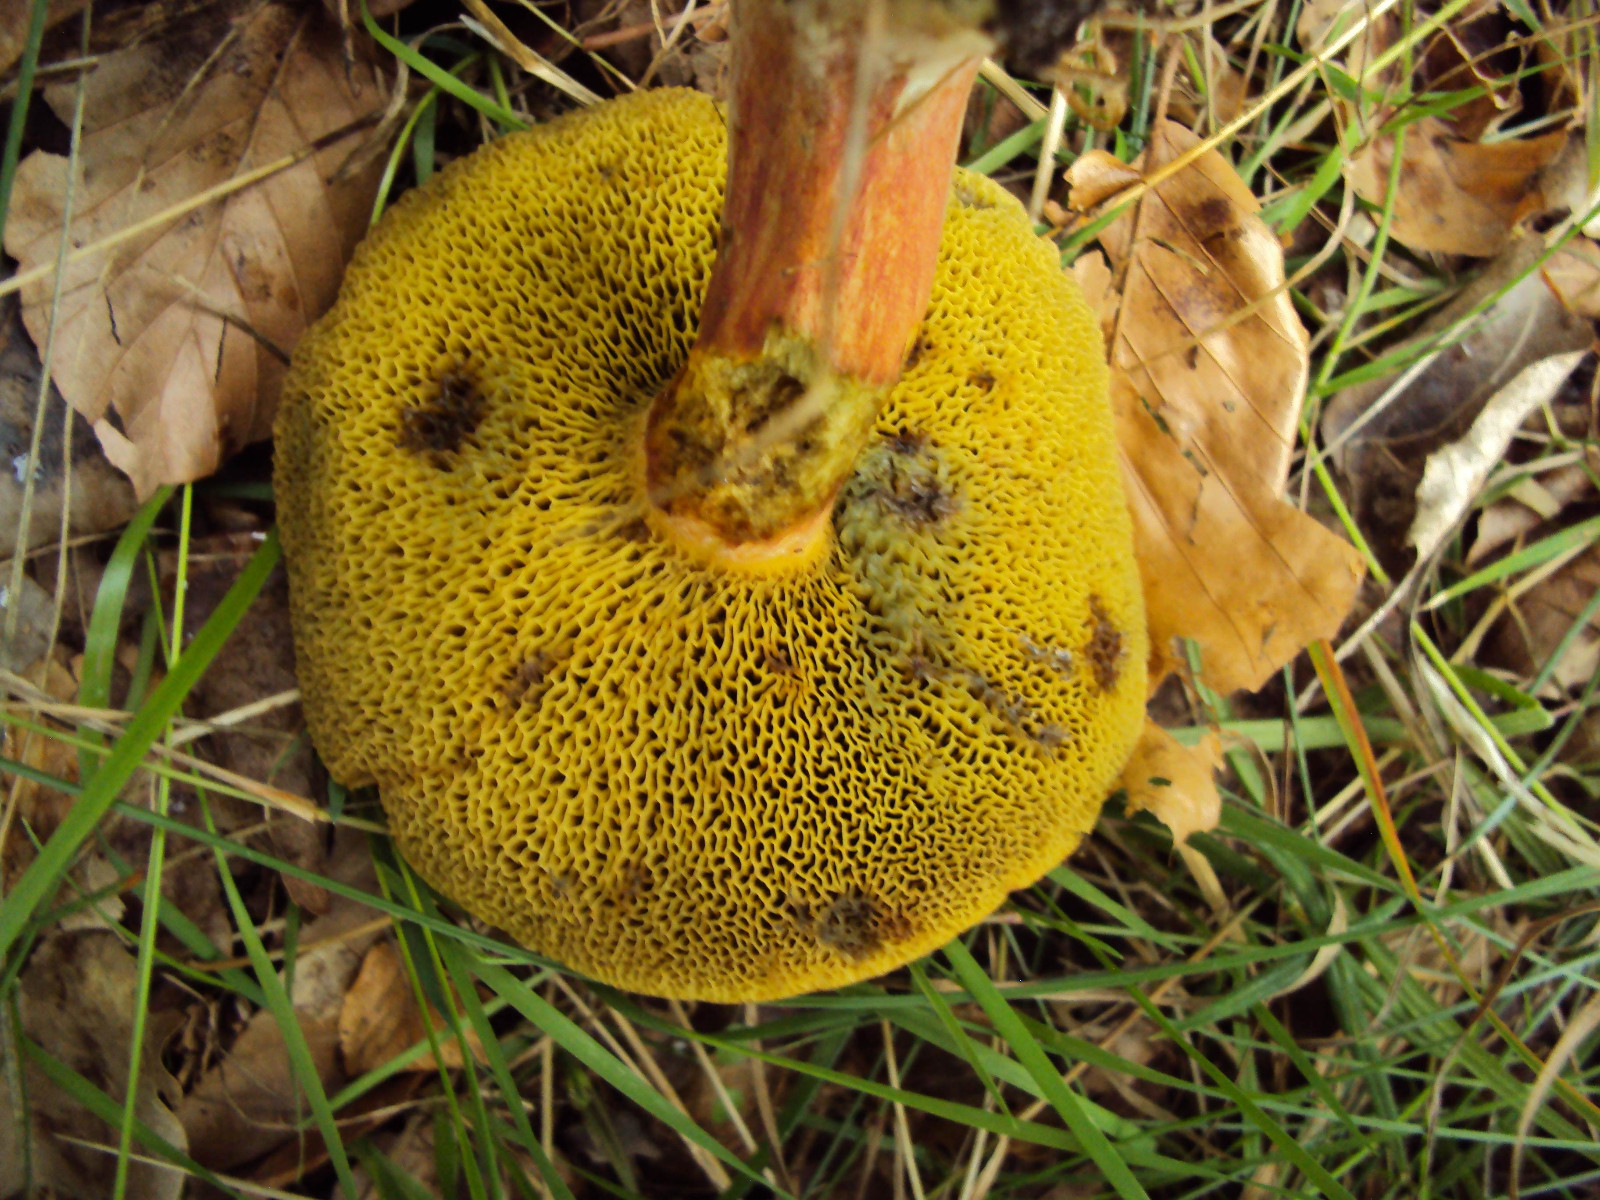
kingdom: Fungi
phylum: Basidiomycota
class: Agaricomycetes
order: Boletales
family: Boletaceae
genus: Hortiboletus
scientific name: Hortiboletus rubellus
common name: blodrød rørhat
